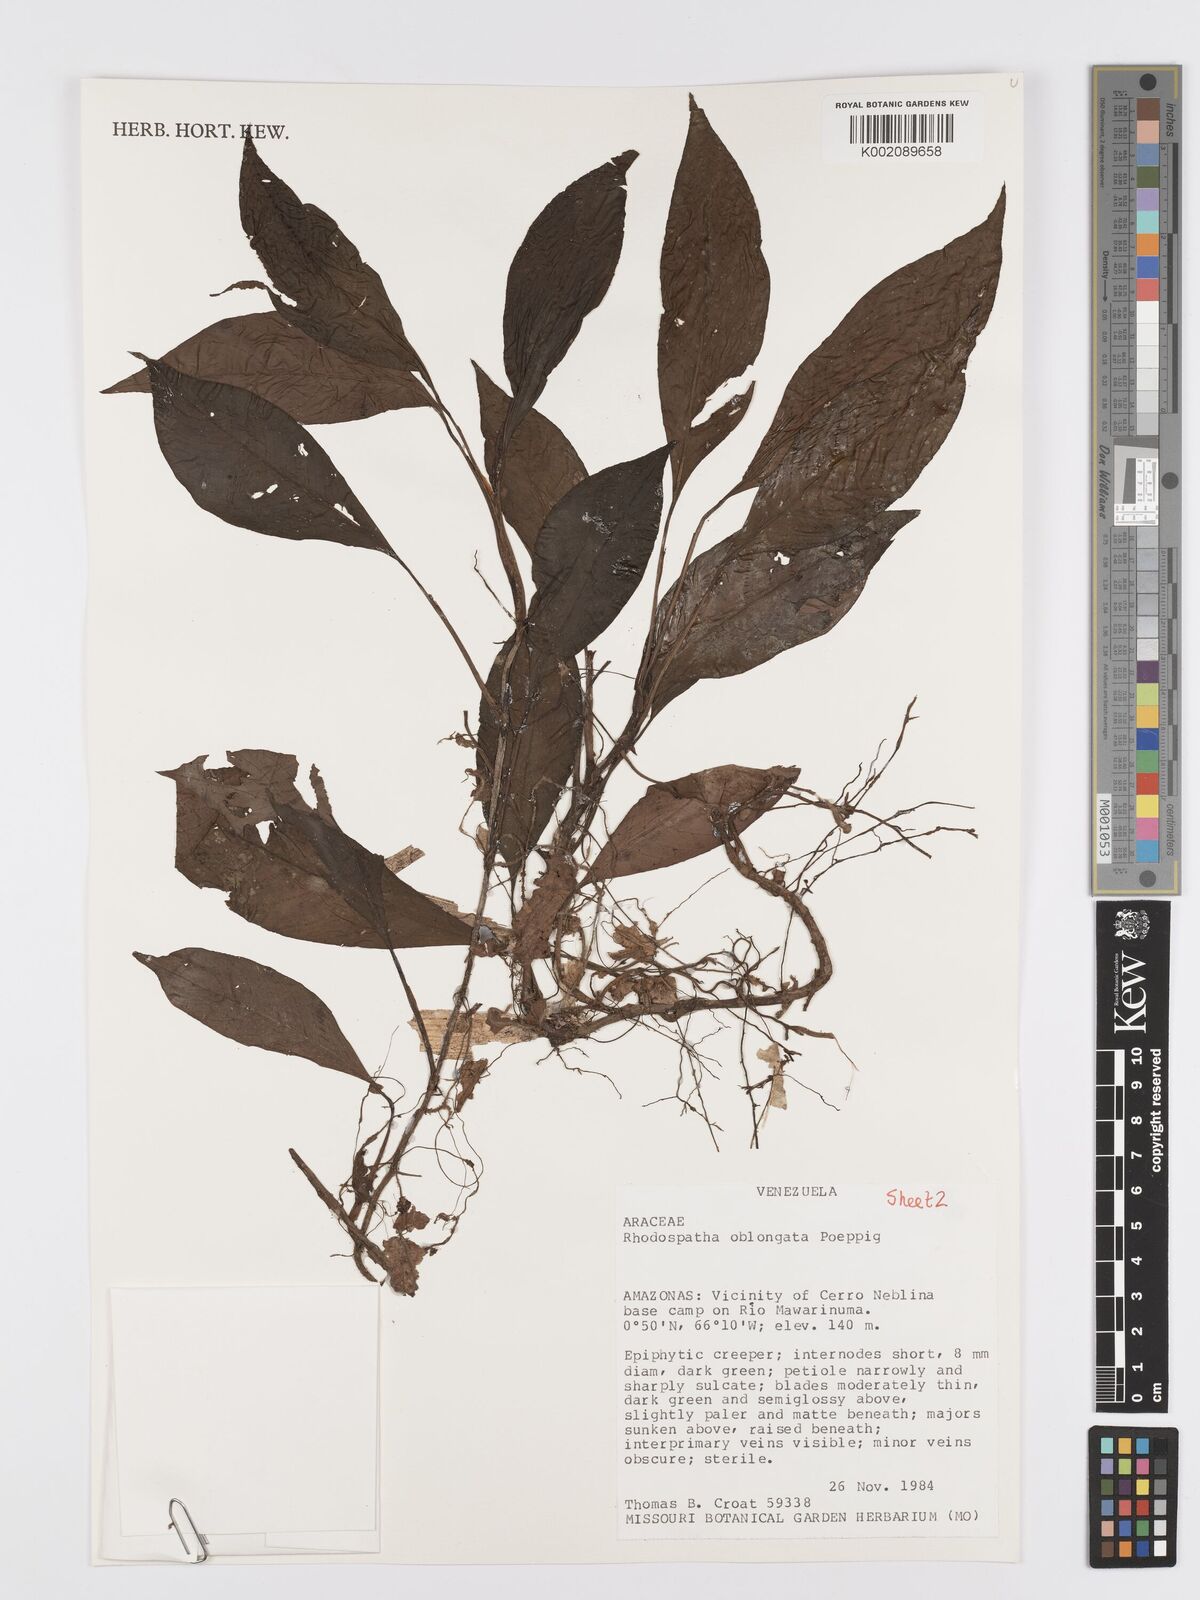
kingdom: Plantae
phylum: Tracheophyta
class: Liliopsida
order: Alismatales
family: Araceae
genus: Rhodospatha
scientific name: Rhodospatha oblongata
